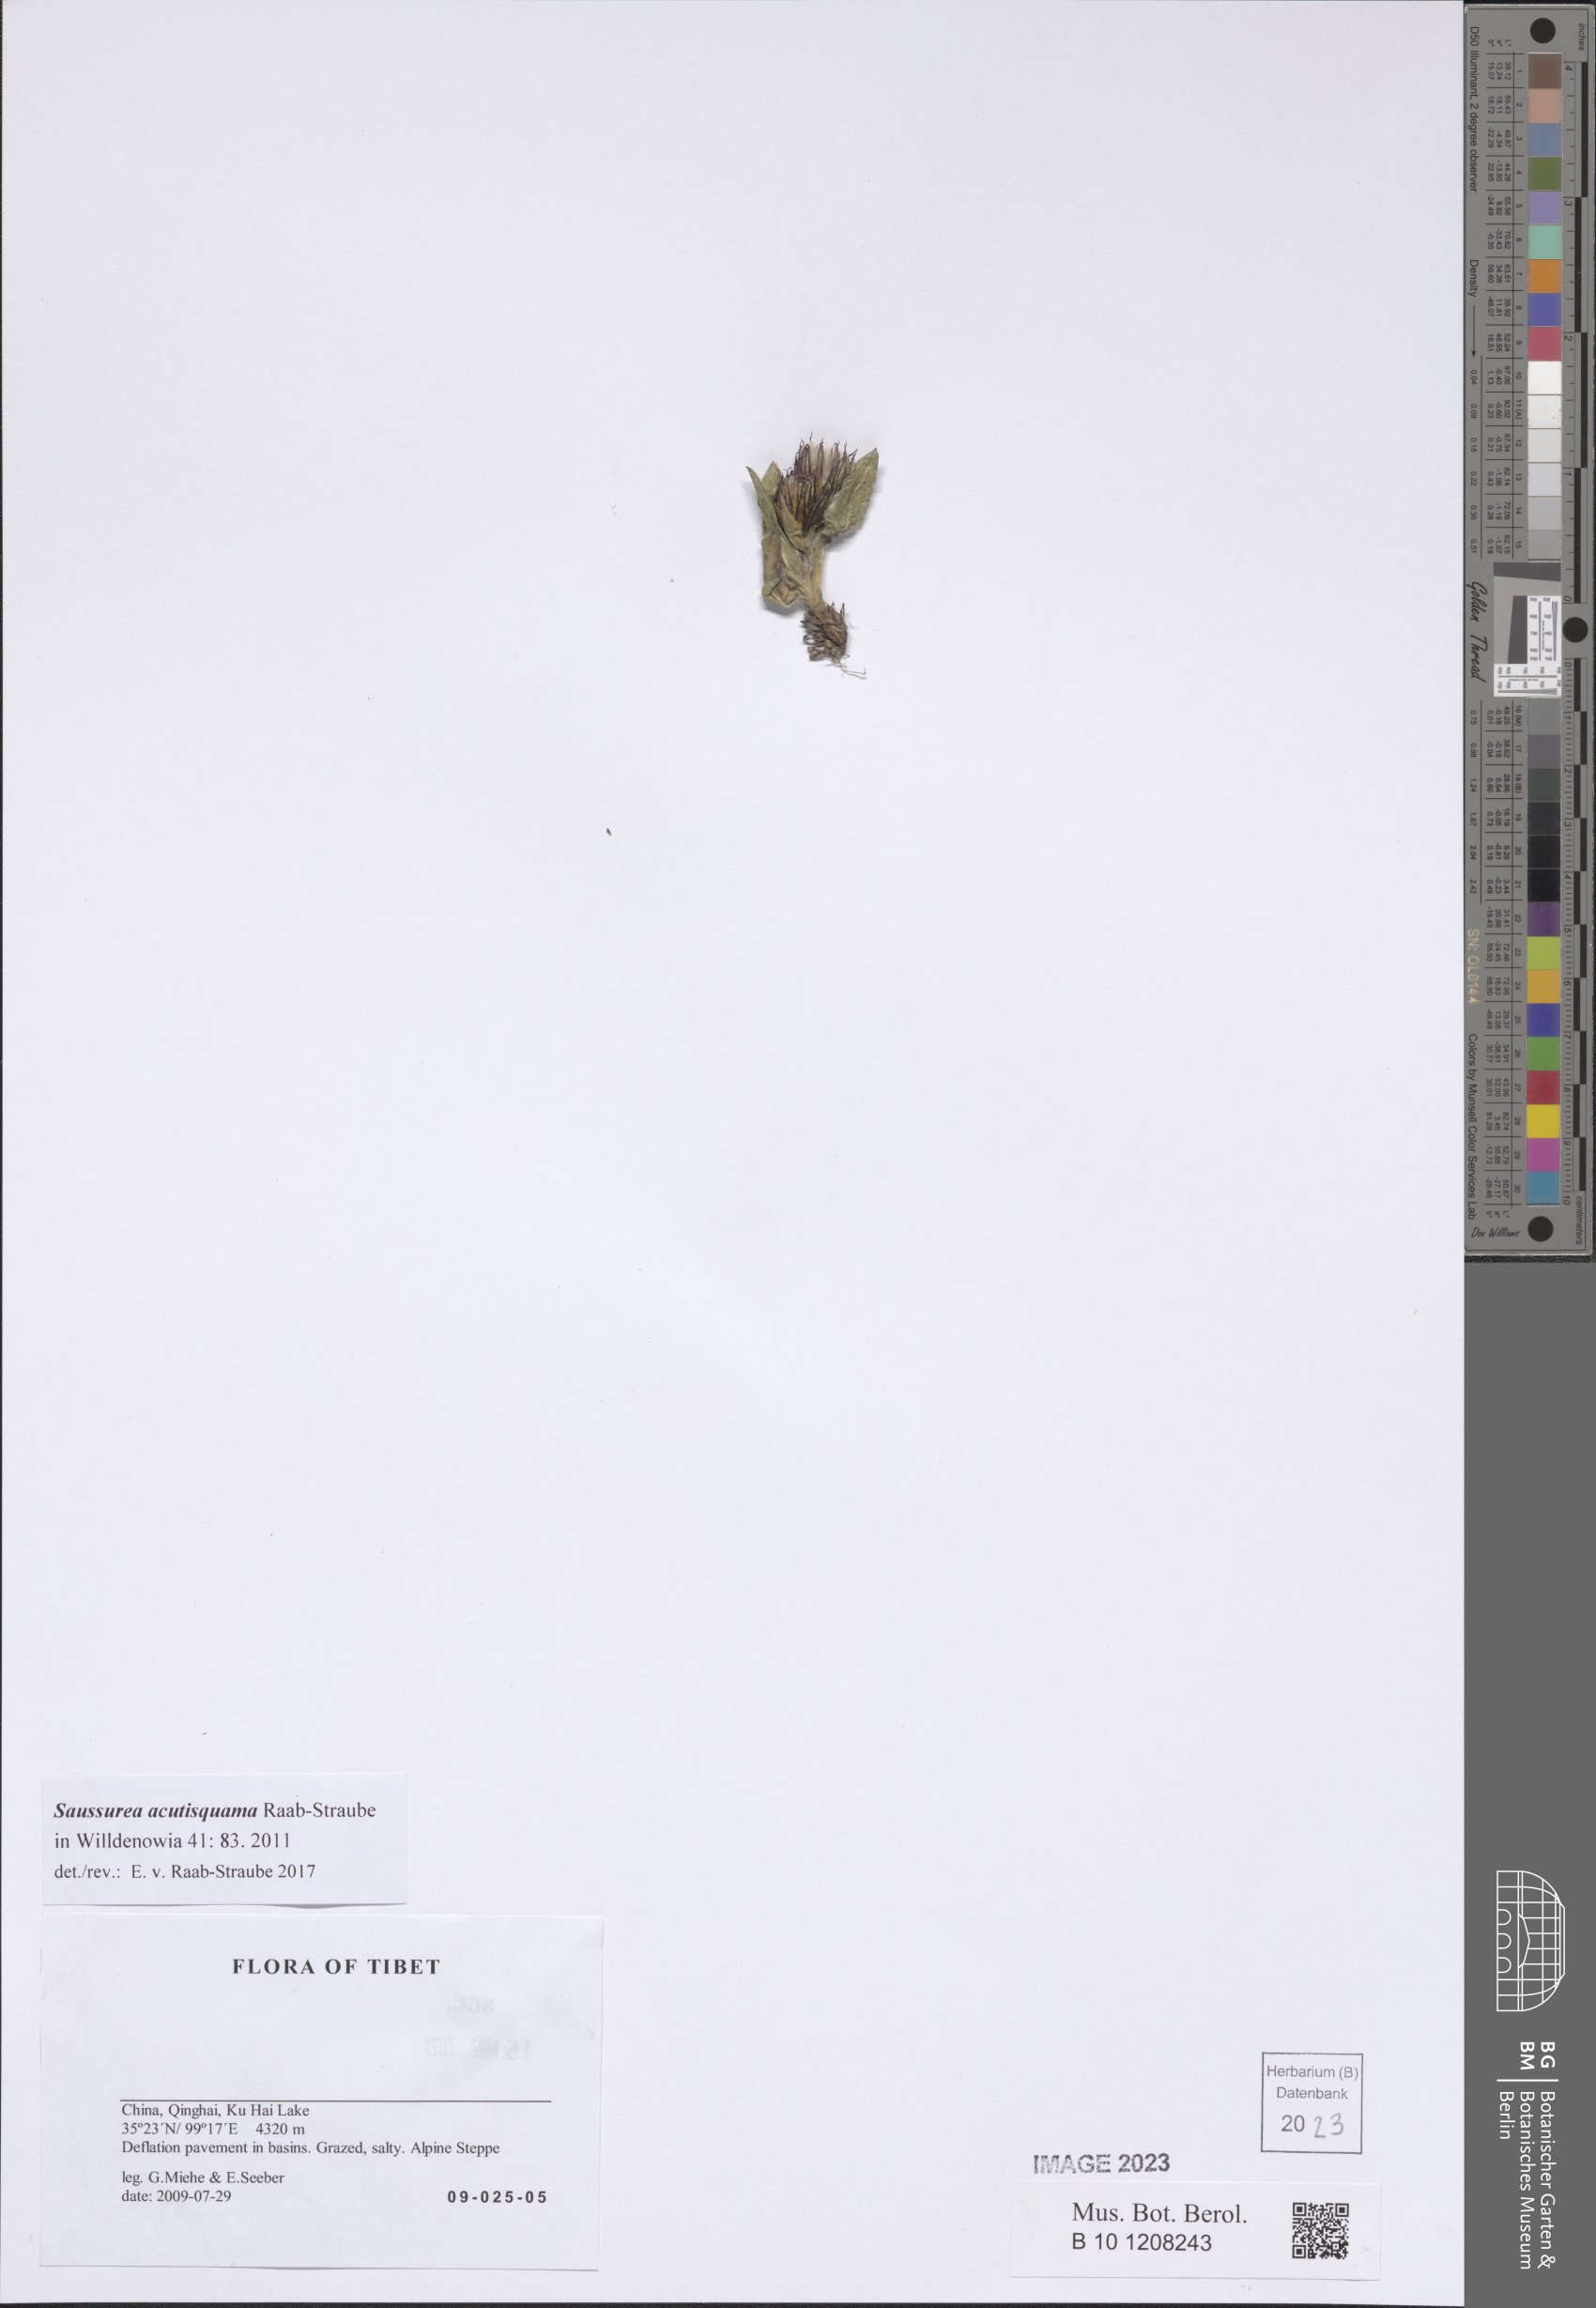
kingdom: Plantae
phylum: Tracheophyta
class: Magnoliopsida
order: Asterales
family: Asteraceae
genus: Saussurea
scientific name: Saussurea acutisquama
